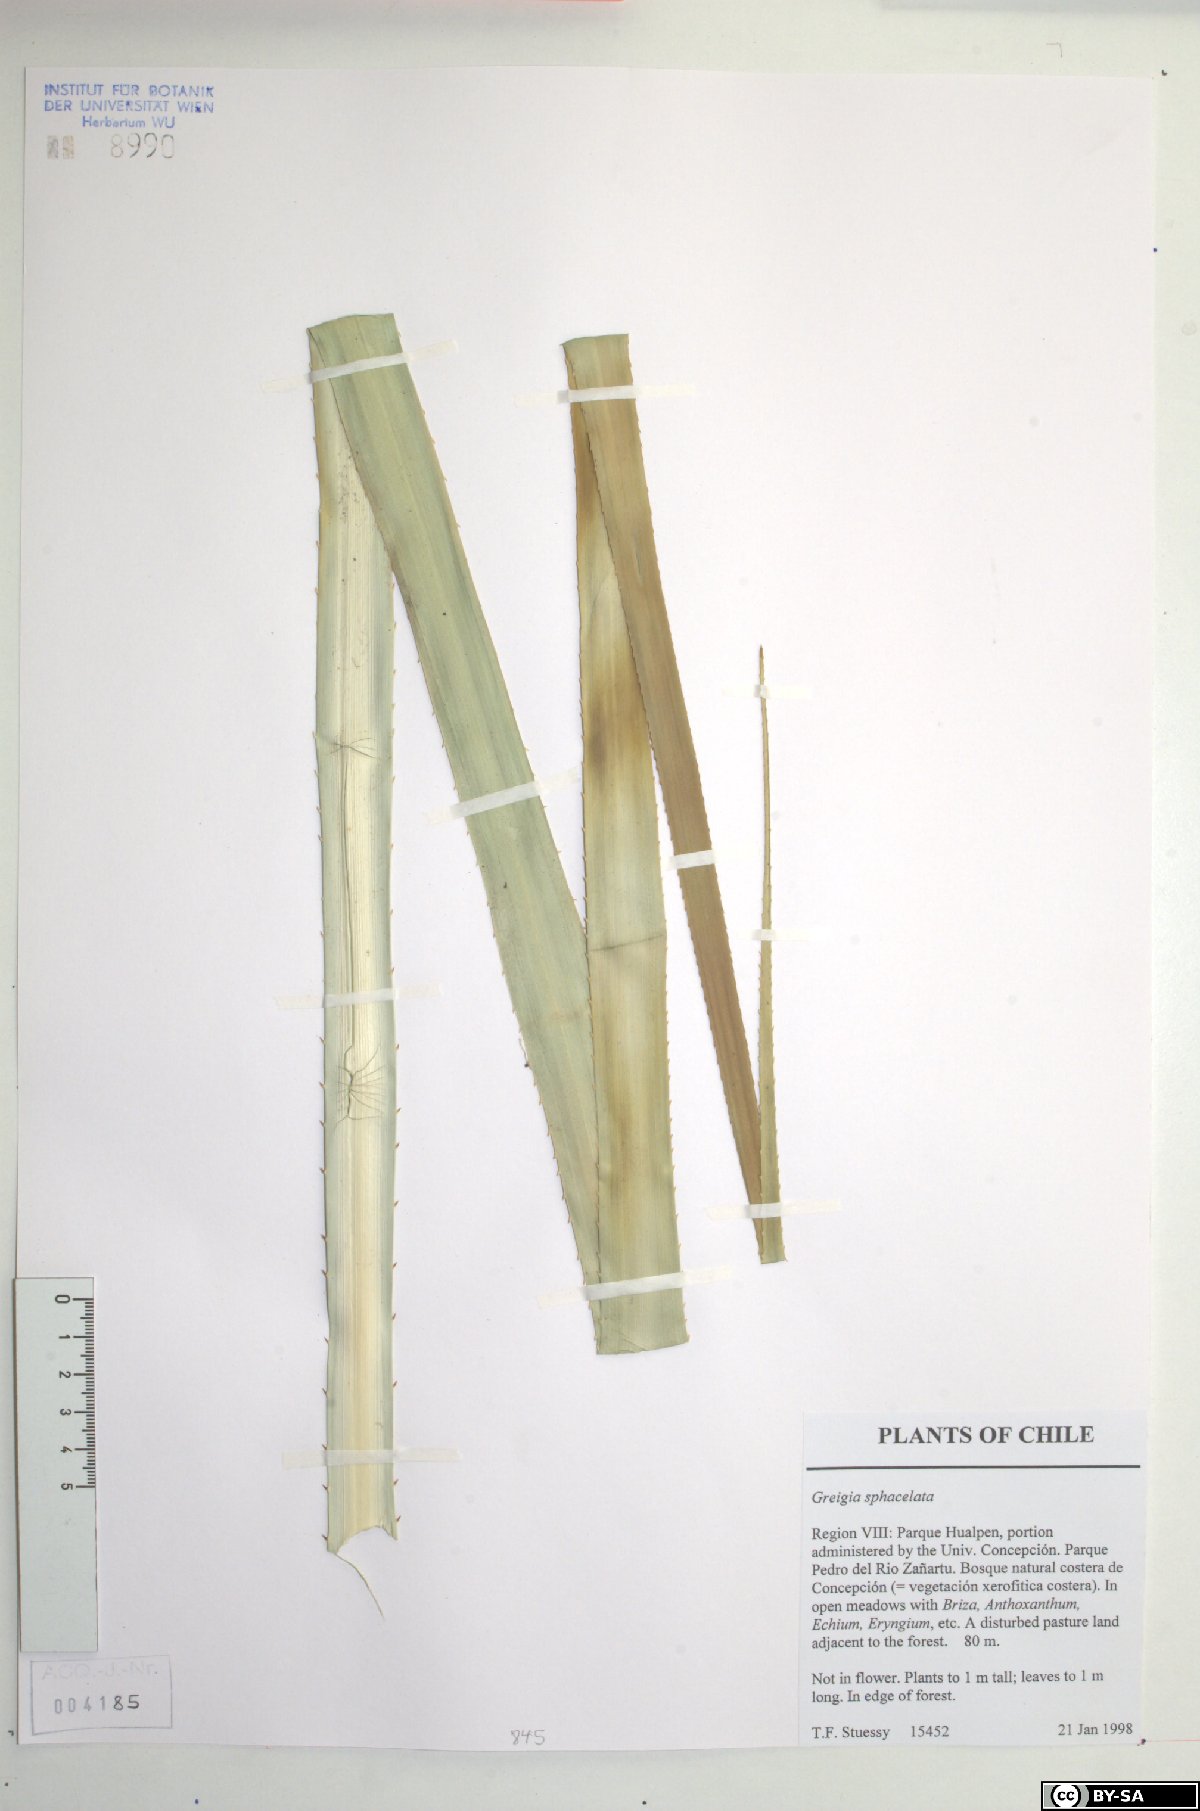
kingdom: Plantae
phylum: Tracheophyta
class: Liliopsida
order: Poales
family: Bromeliaceae
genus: Greigia
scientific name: Greigia sphacelata
